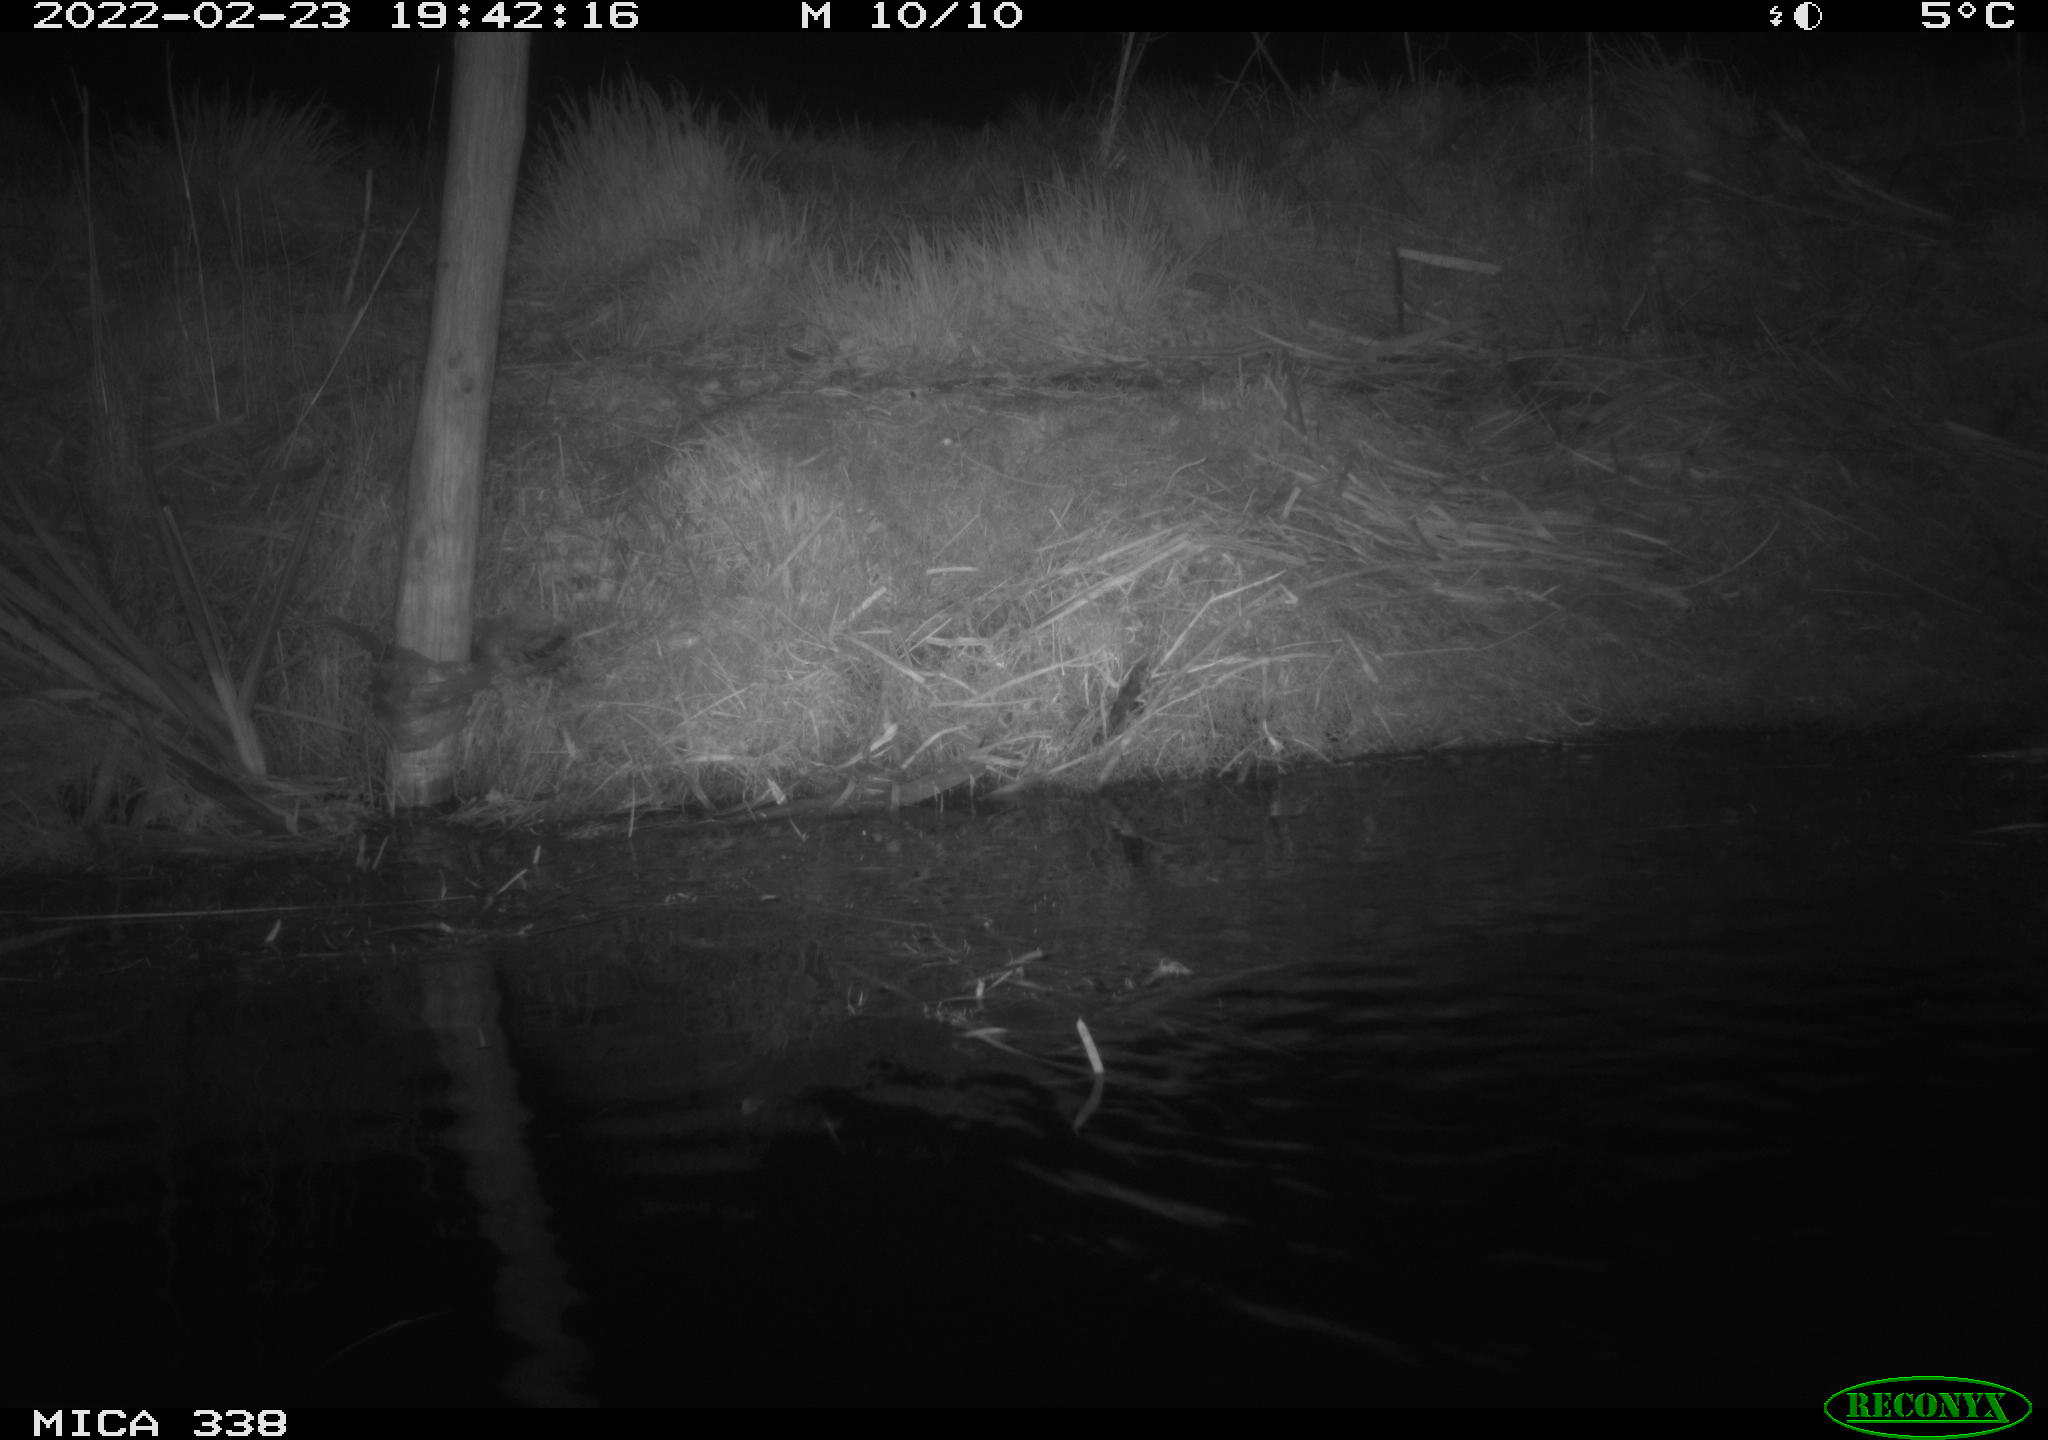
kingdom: Animalia
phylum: Chordata
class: Mammalia
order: Rodentia
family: Muridae
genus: Rattus
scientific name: Rattus norvegicus
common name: Brown rat
